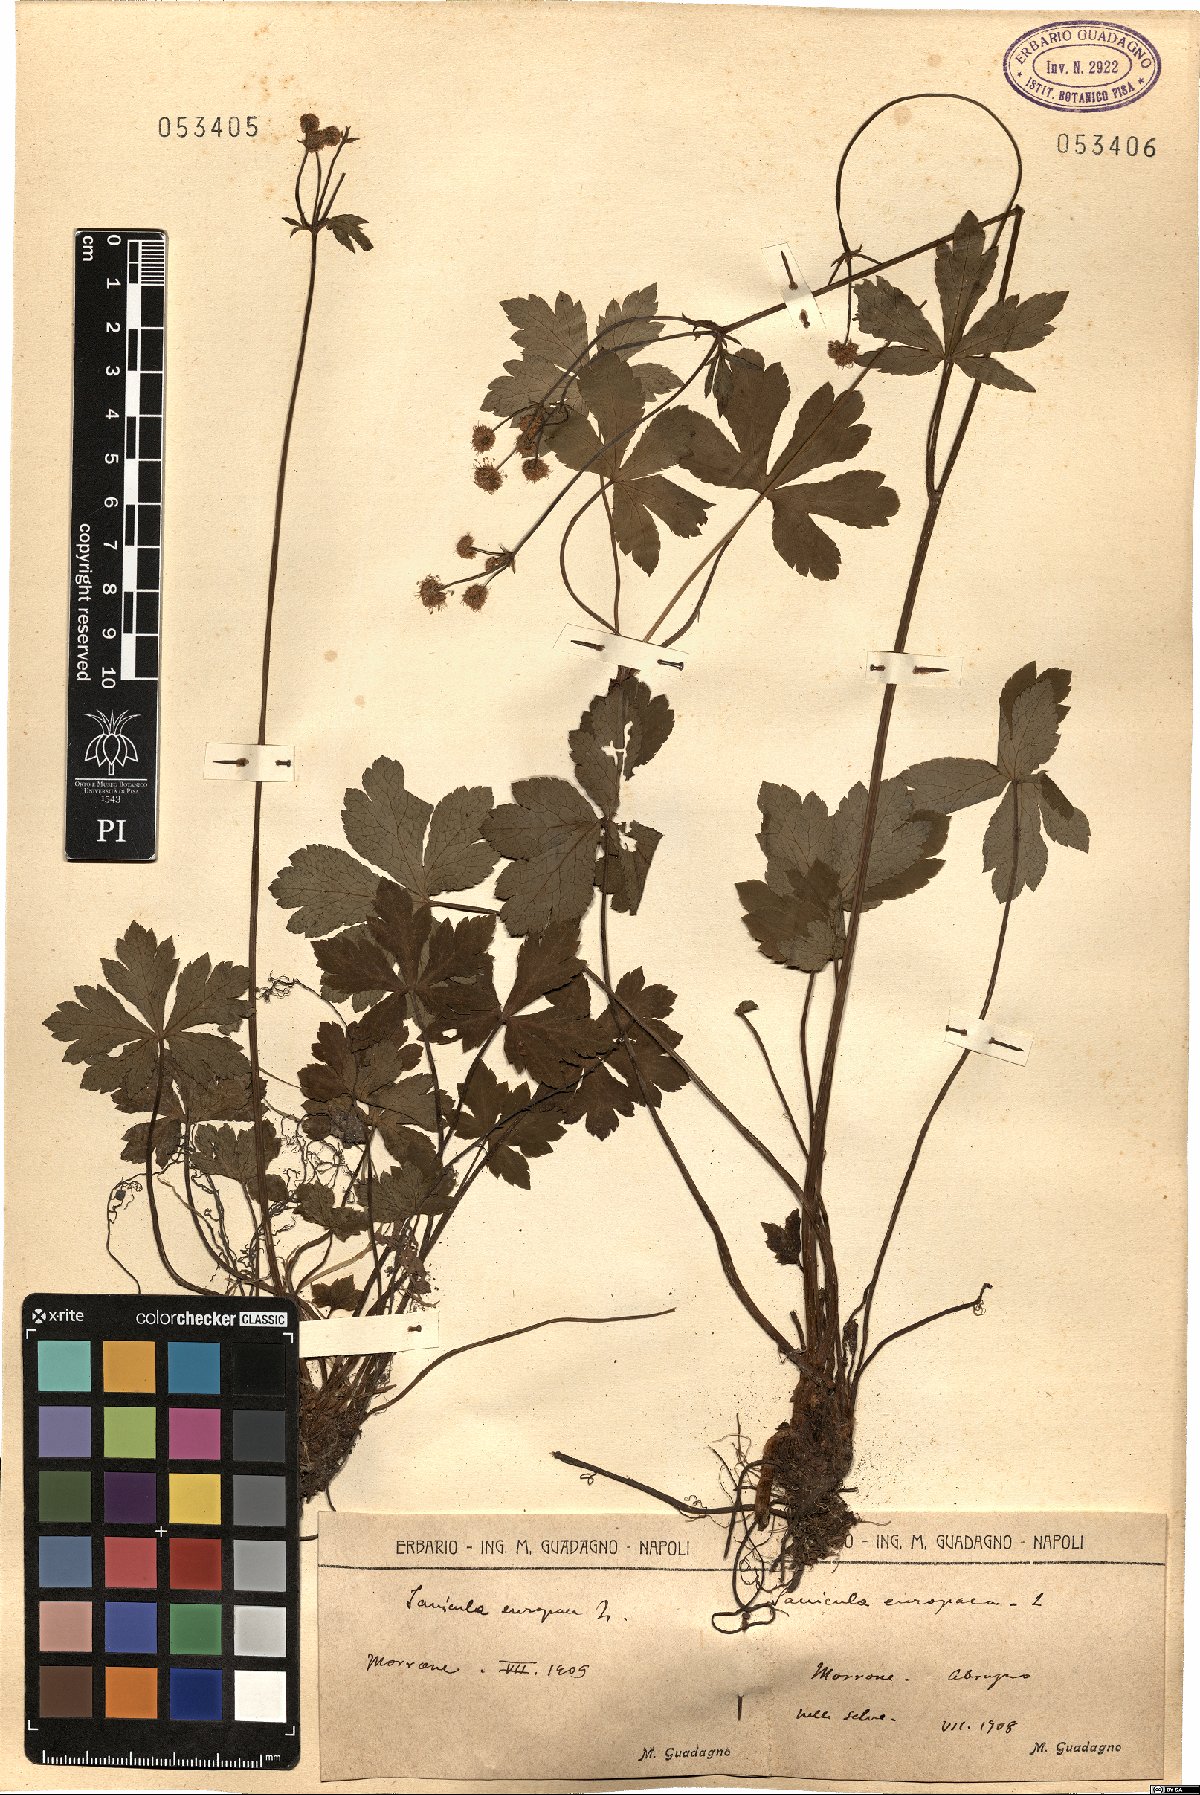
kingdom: Plantae
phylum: Tracheophyta
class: Magnoliopsida
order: Apiales
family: Apiaceae
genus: Sanicula
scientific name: Sanicula europaea
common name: Sanicle
